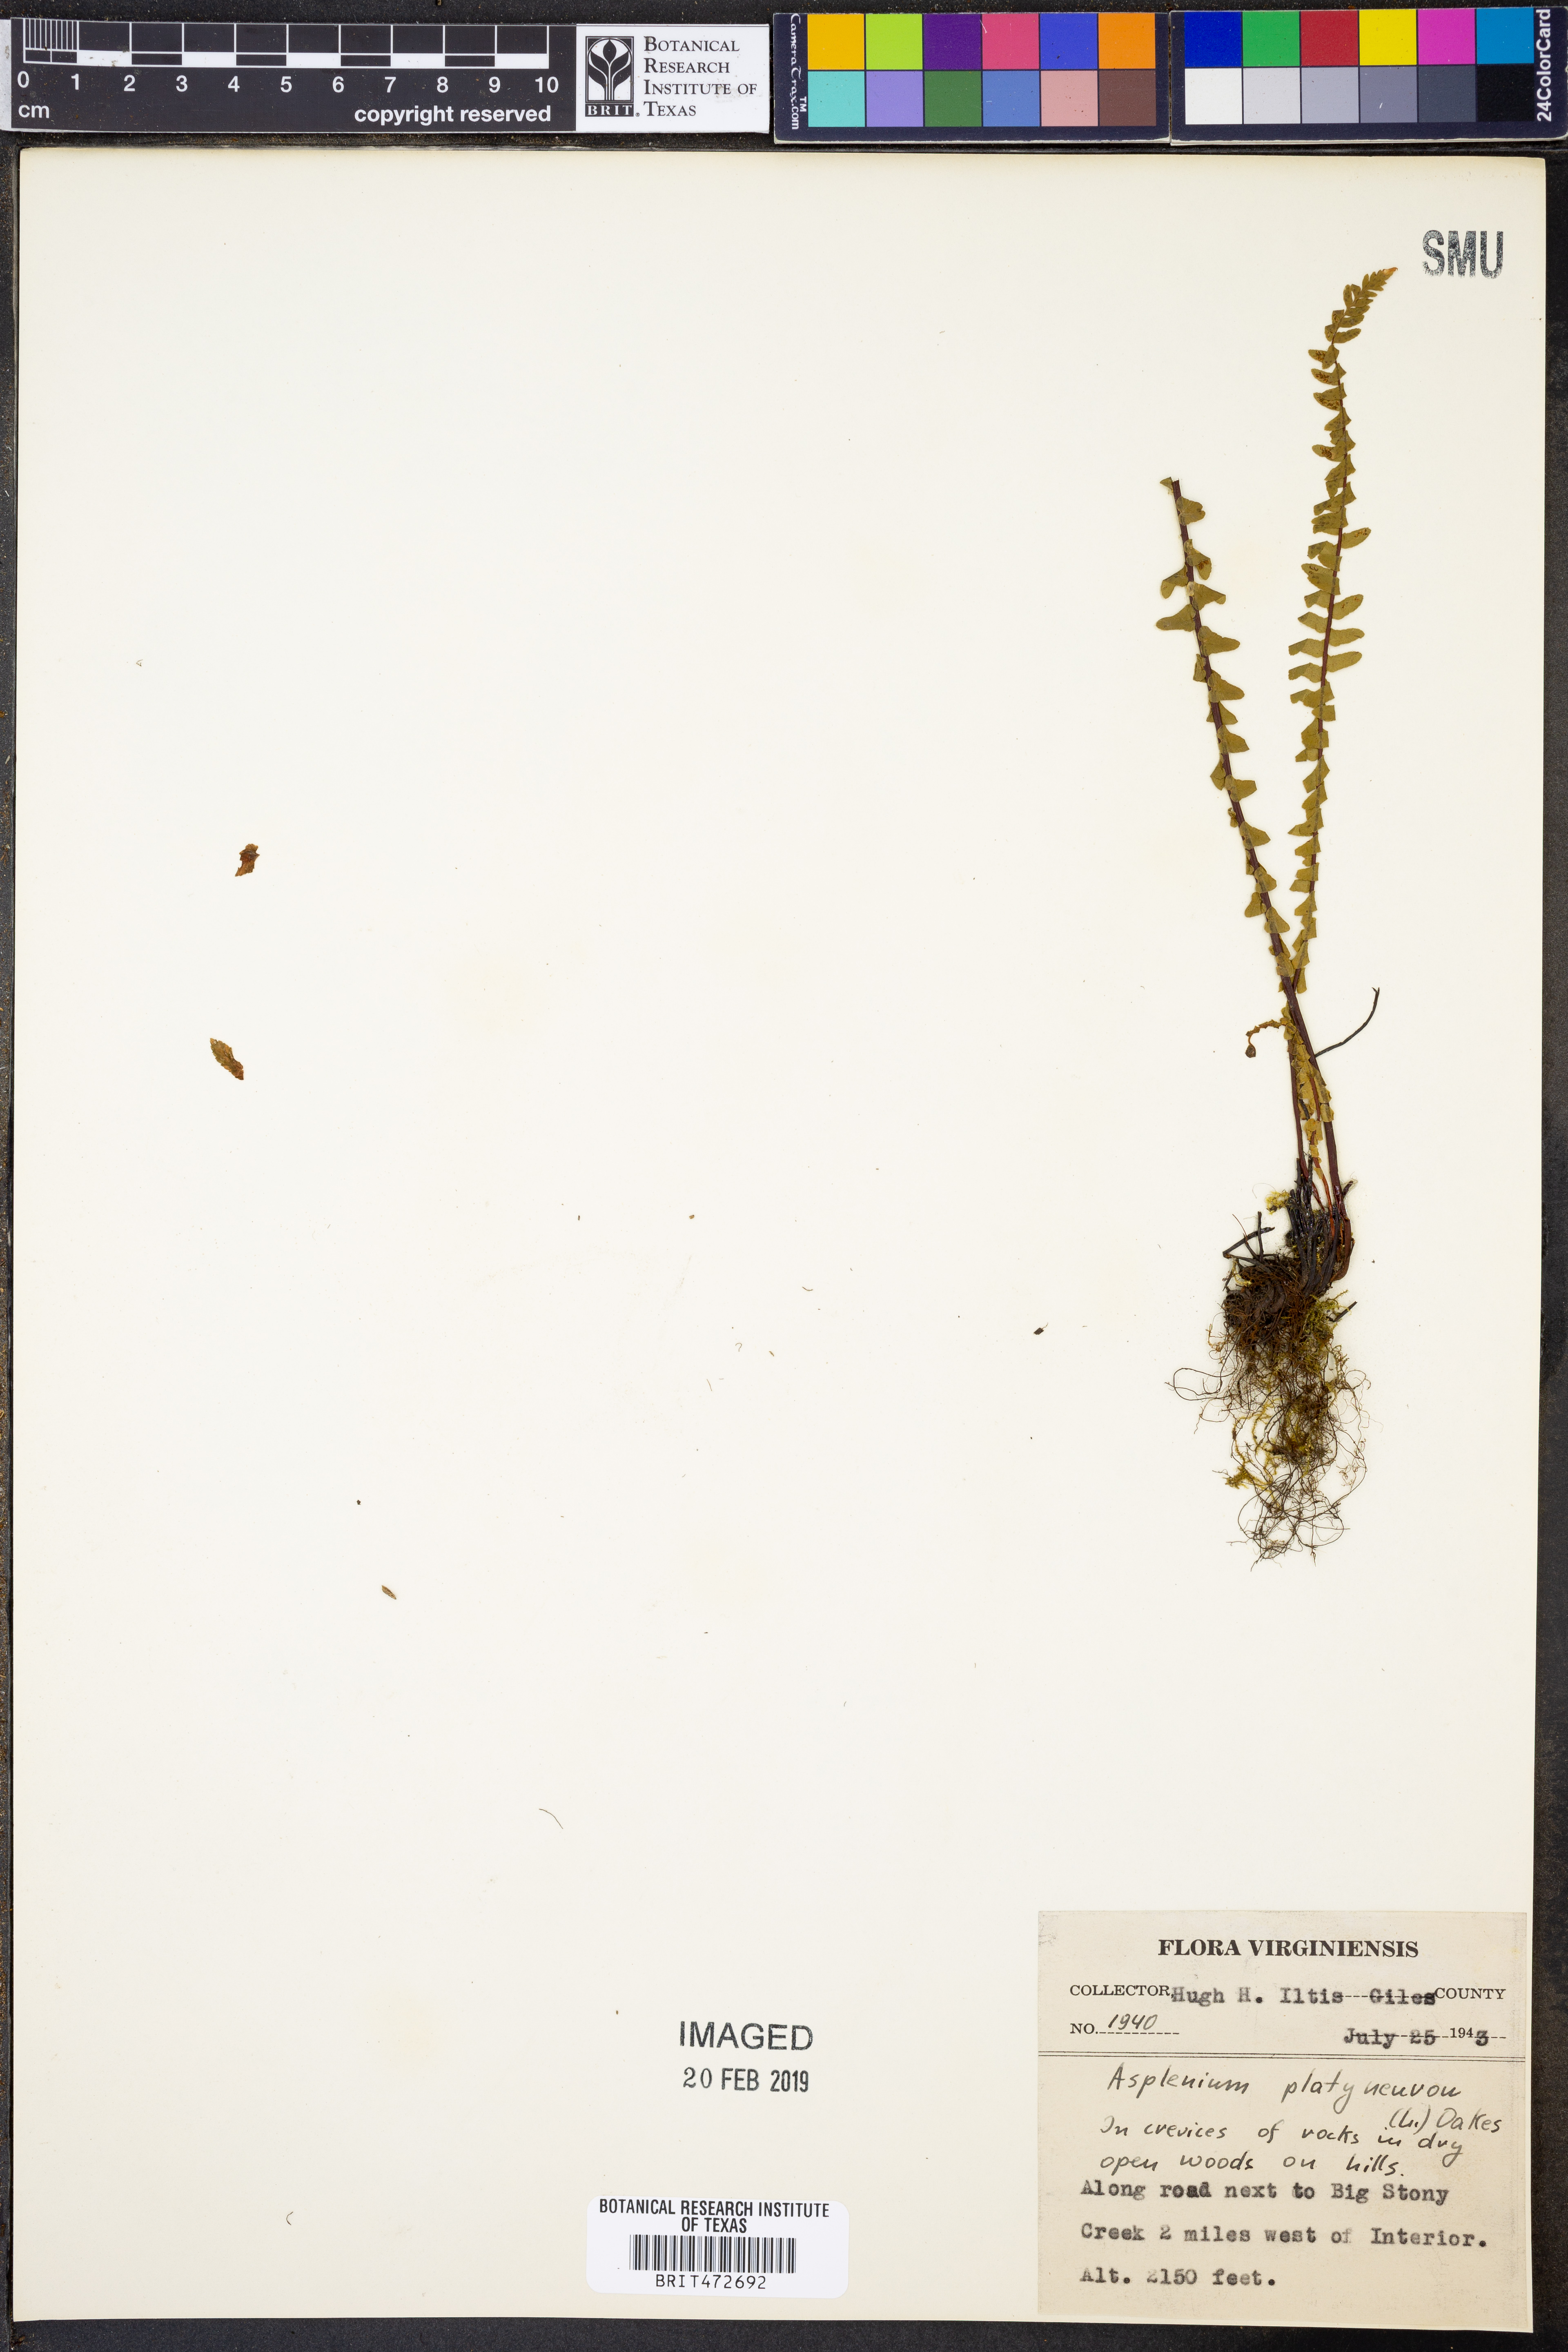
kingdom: Plantae
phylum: Tracheophyta
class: Polypodiopsida
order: Polypodiales
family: Aspleniaceae
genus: Asplenium
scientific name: Asplenium platyneuron
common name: Ebony spleenwort
